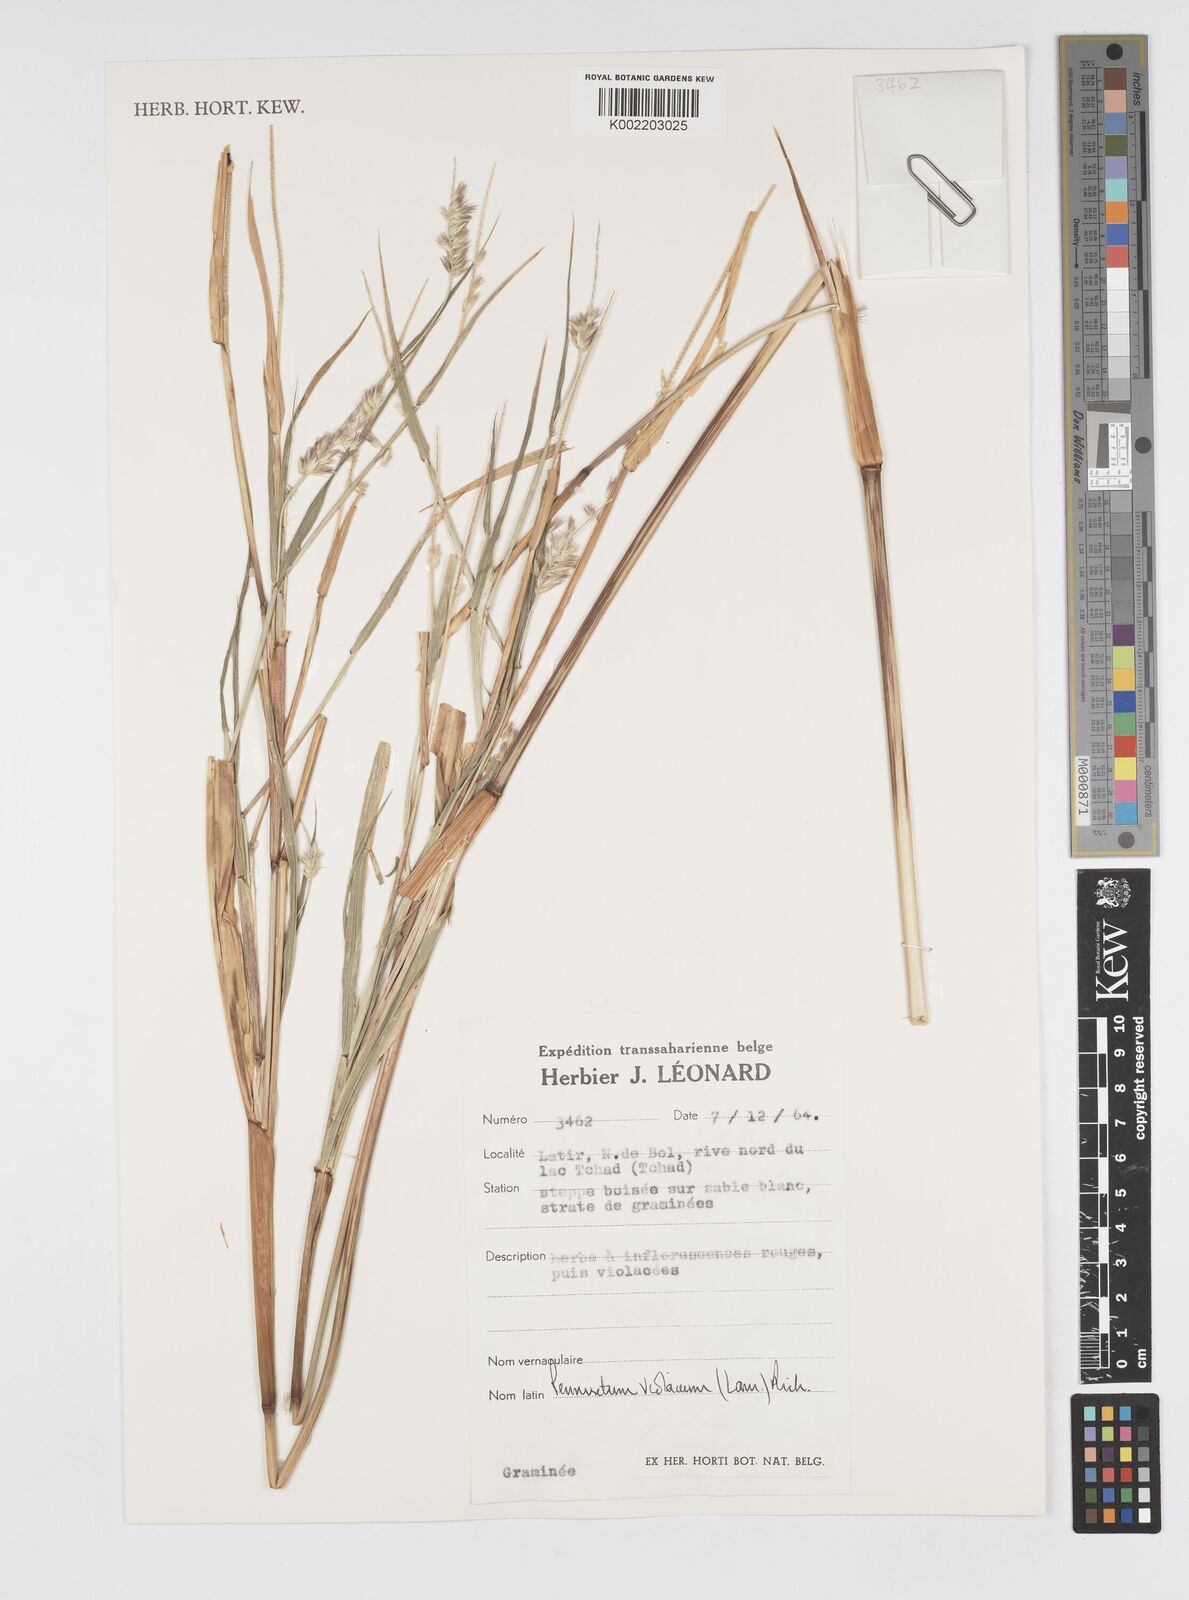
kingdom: Plantae
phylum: Tracheophyta
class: Liliopsida
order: Poales
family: Poaceae
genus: Cenchrus
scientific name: Cenchrus violaceus
